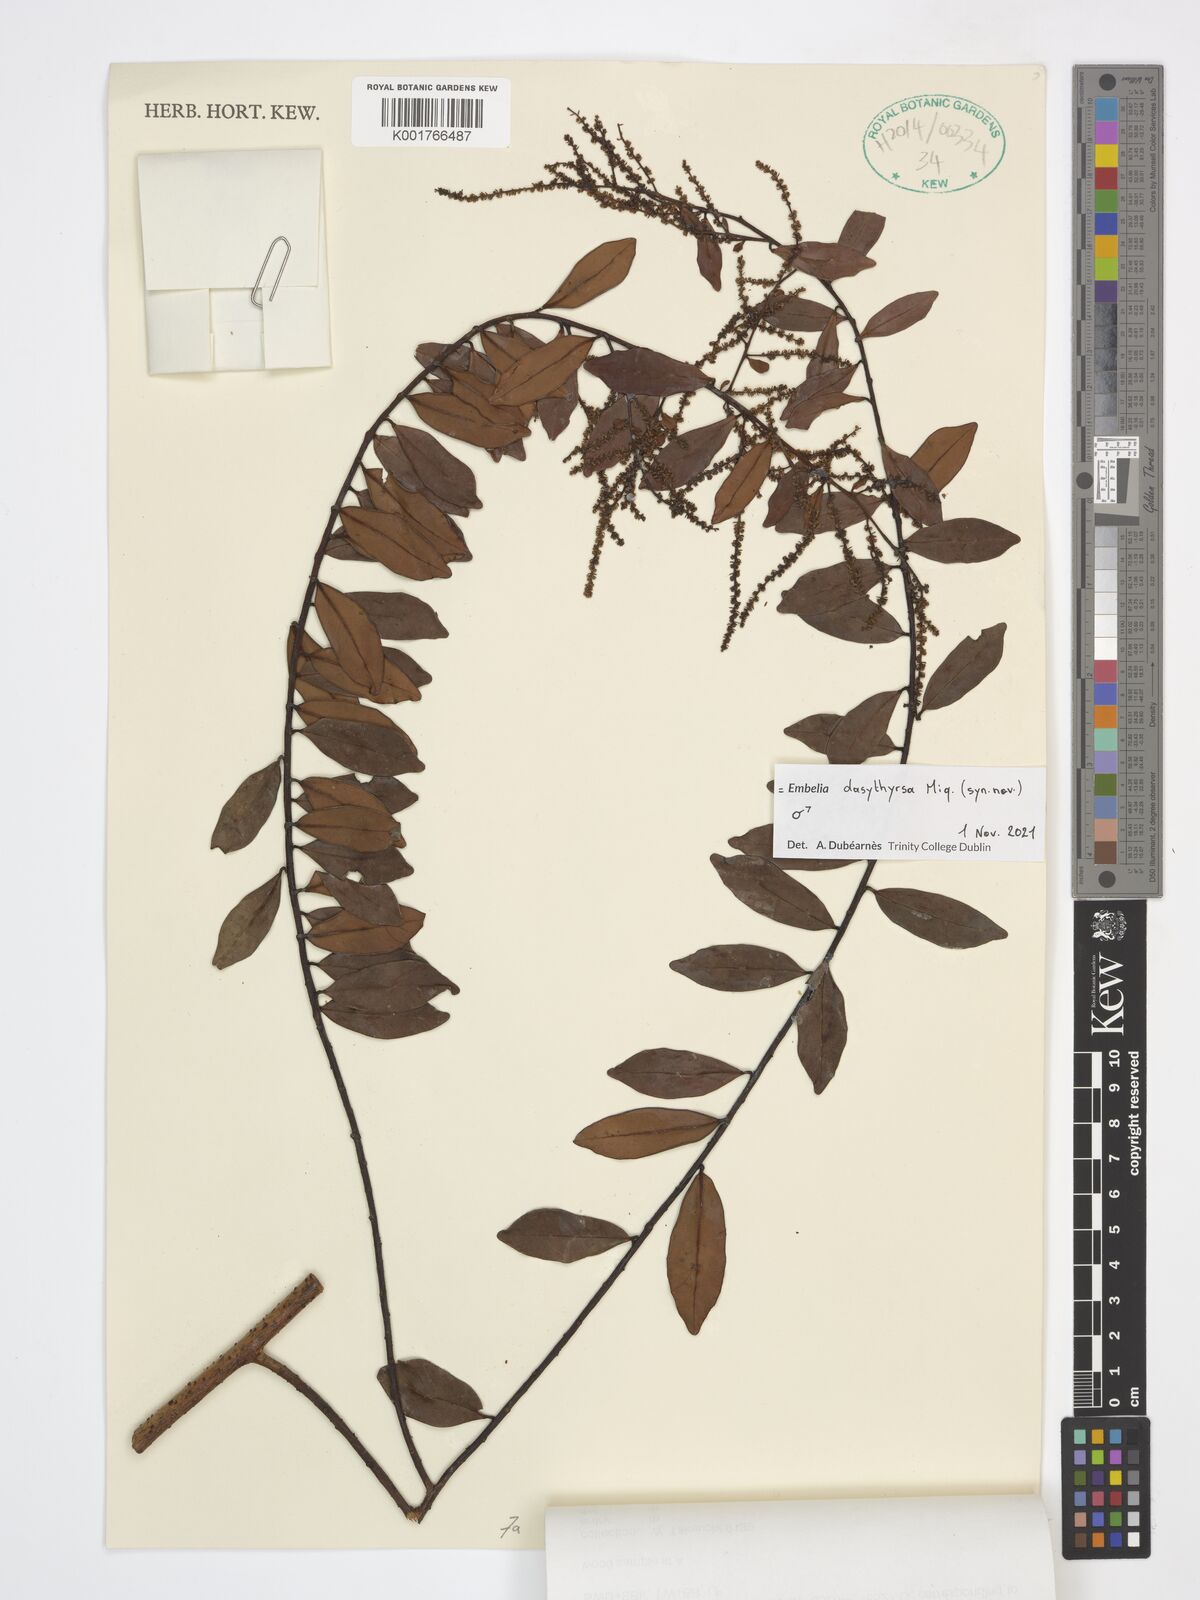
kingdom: Plantae
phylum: Tracheophyta
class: Magnoliopsida
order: Ericales
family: Primulaceae
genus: Embelia
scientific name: Embelia dasythyrsa
